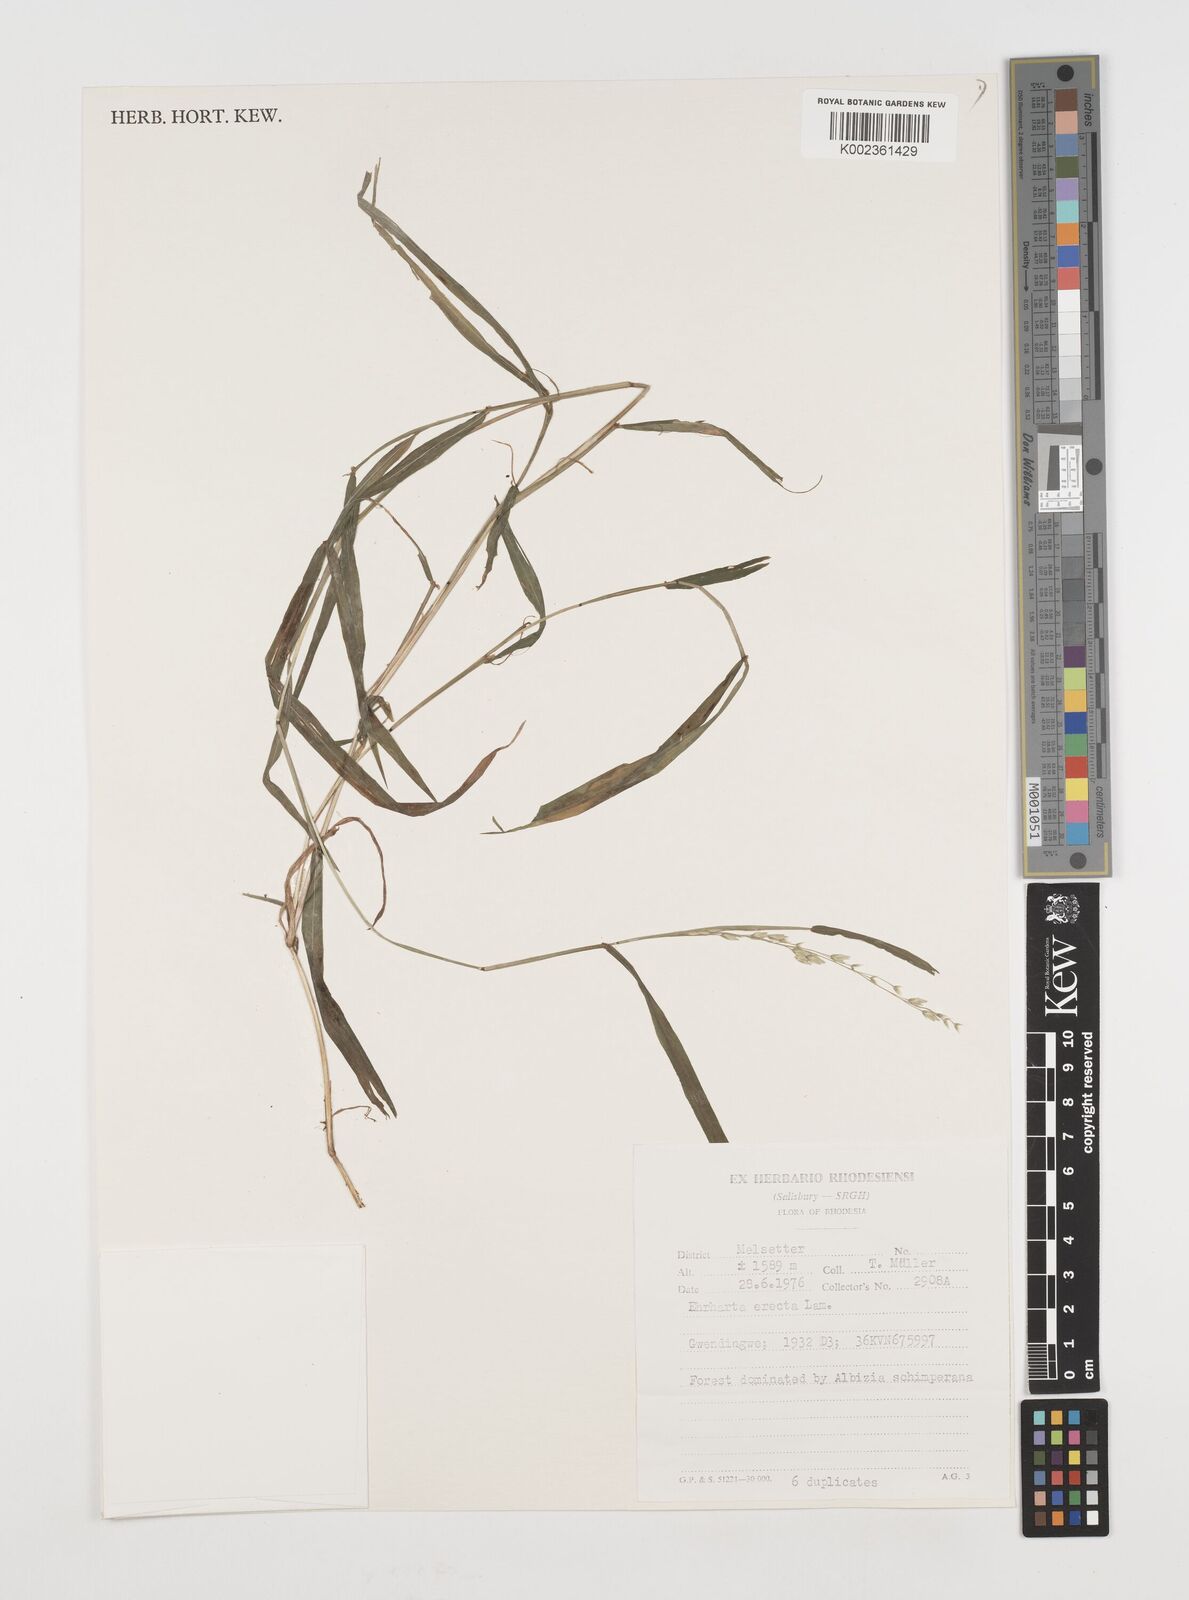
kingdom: Plantae
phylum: Tracheophyta
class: Liliopsida
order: Poales
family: Poaceae
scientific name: Poaceae
